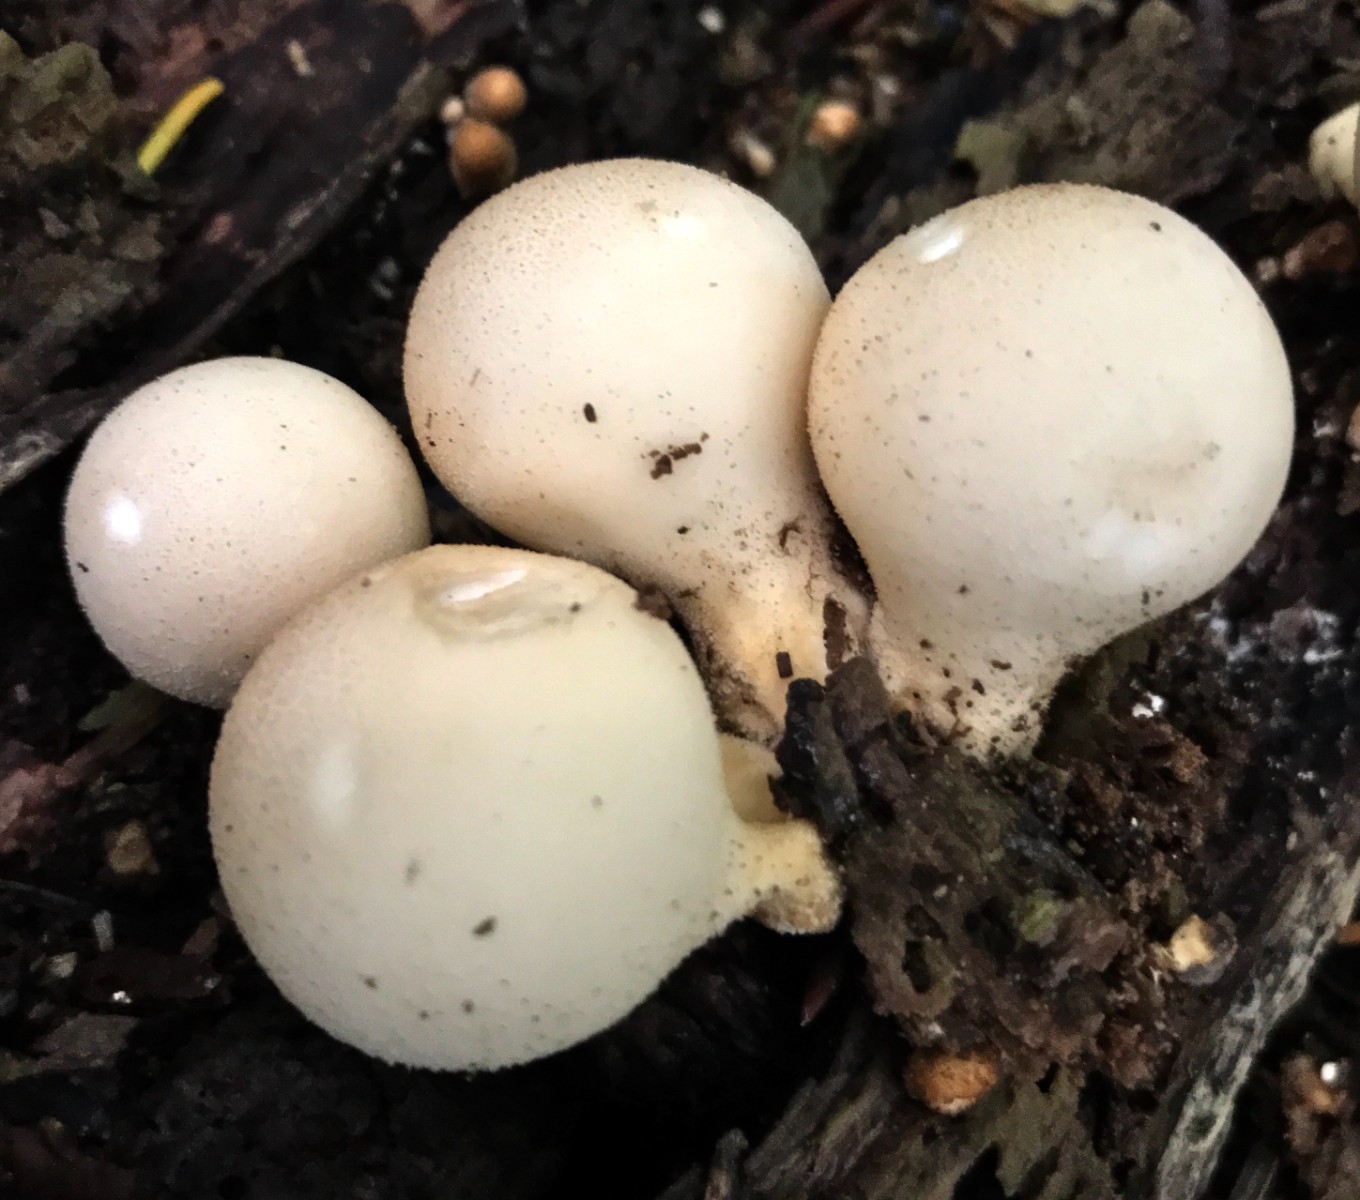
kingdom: Fungi
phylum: Basidiomycota
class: Agaricomycetes
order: Agaricales
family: Lycoperdaceae
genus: Apioperdon
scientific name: Apioperdon pyriforme
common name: pære-støvbold
